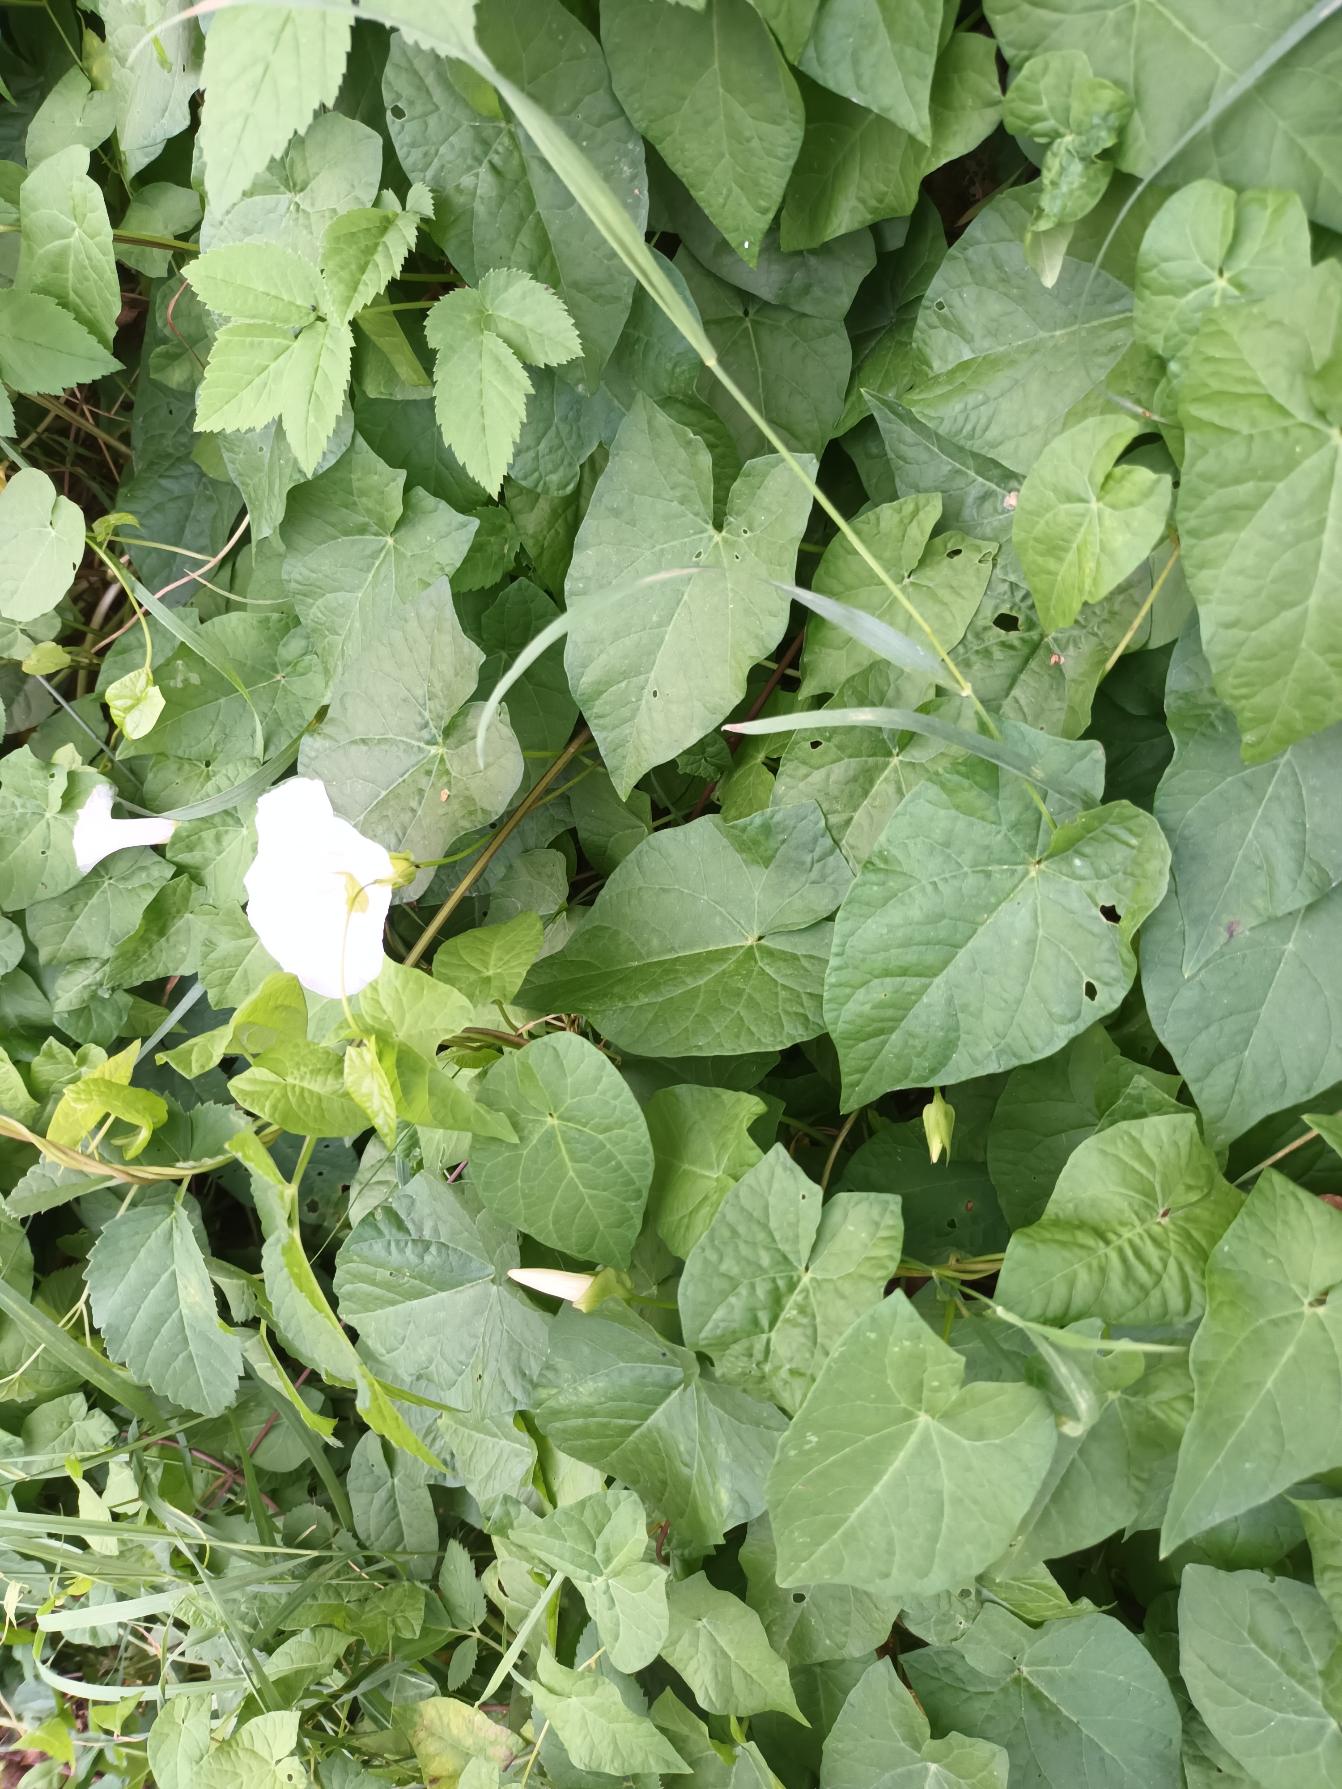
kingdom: Plantae
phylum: Tracheophyta
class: Magnoliopsida
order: Solanales
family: Convolvulaceae
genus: Calystegia
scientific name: Calystegia sepium
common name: Gærde-snerle
